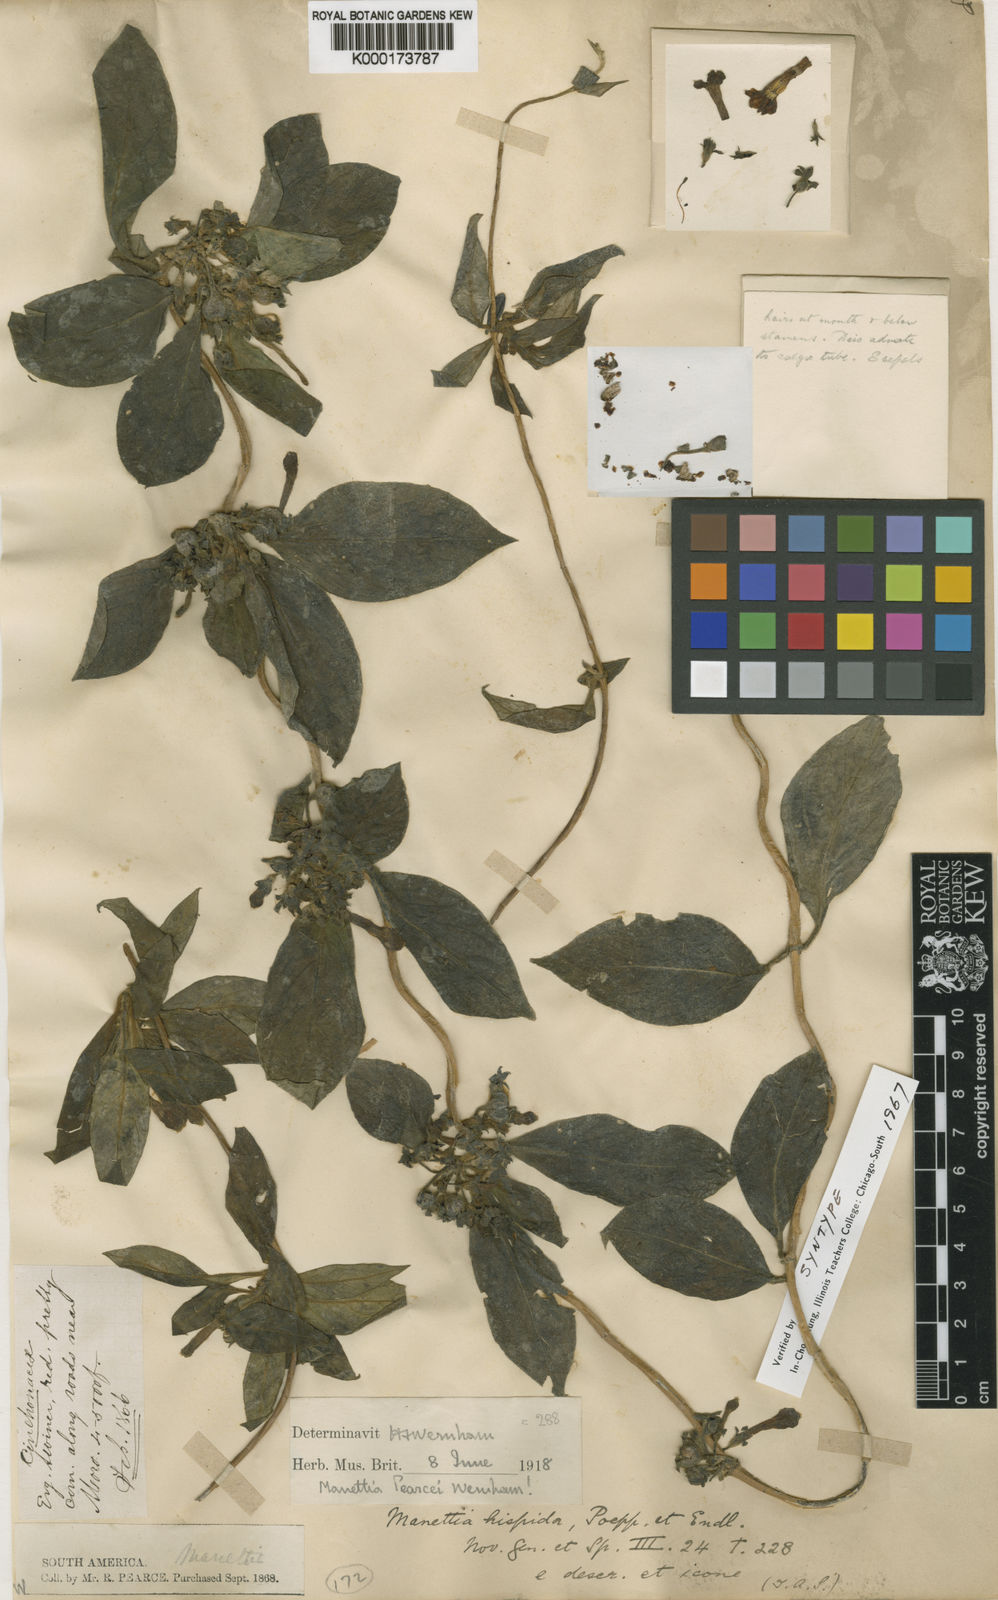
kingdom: Plantae
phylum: Tracheophyta
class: Magnoliopsida
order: Gentianales
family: Rubiaceae
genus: Manettia
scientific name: Manettia pearcei
